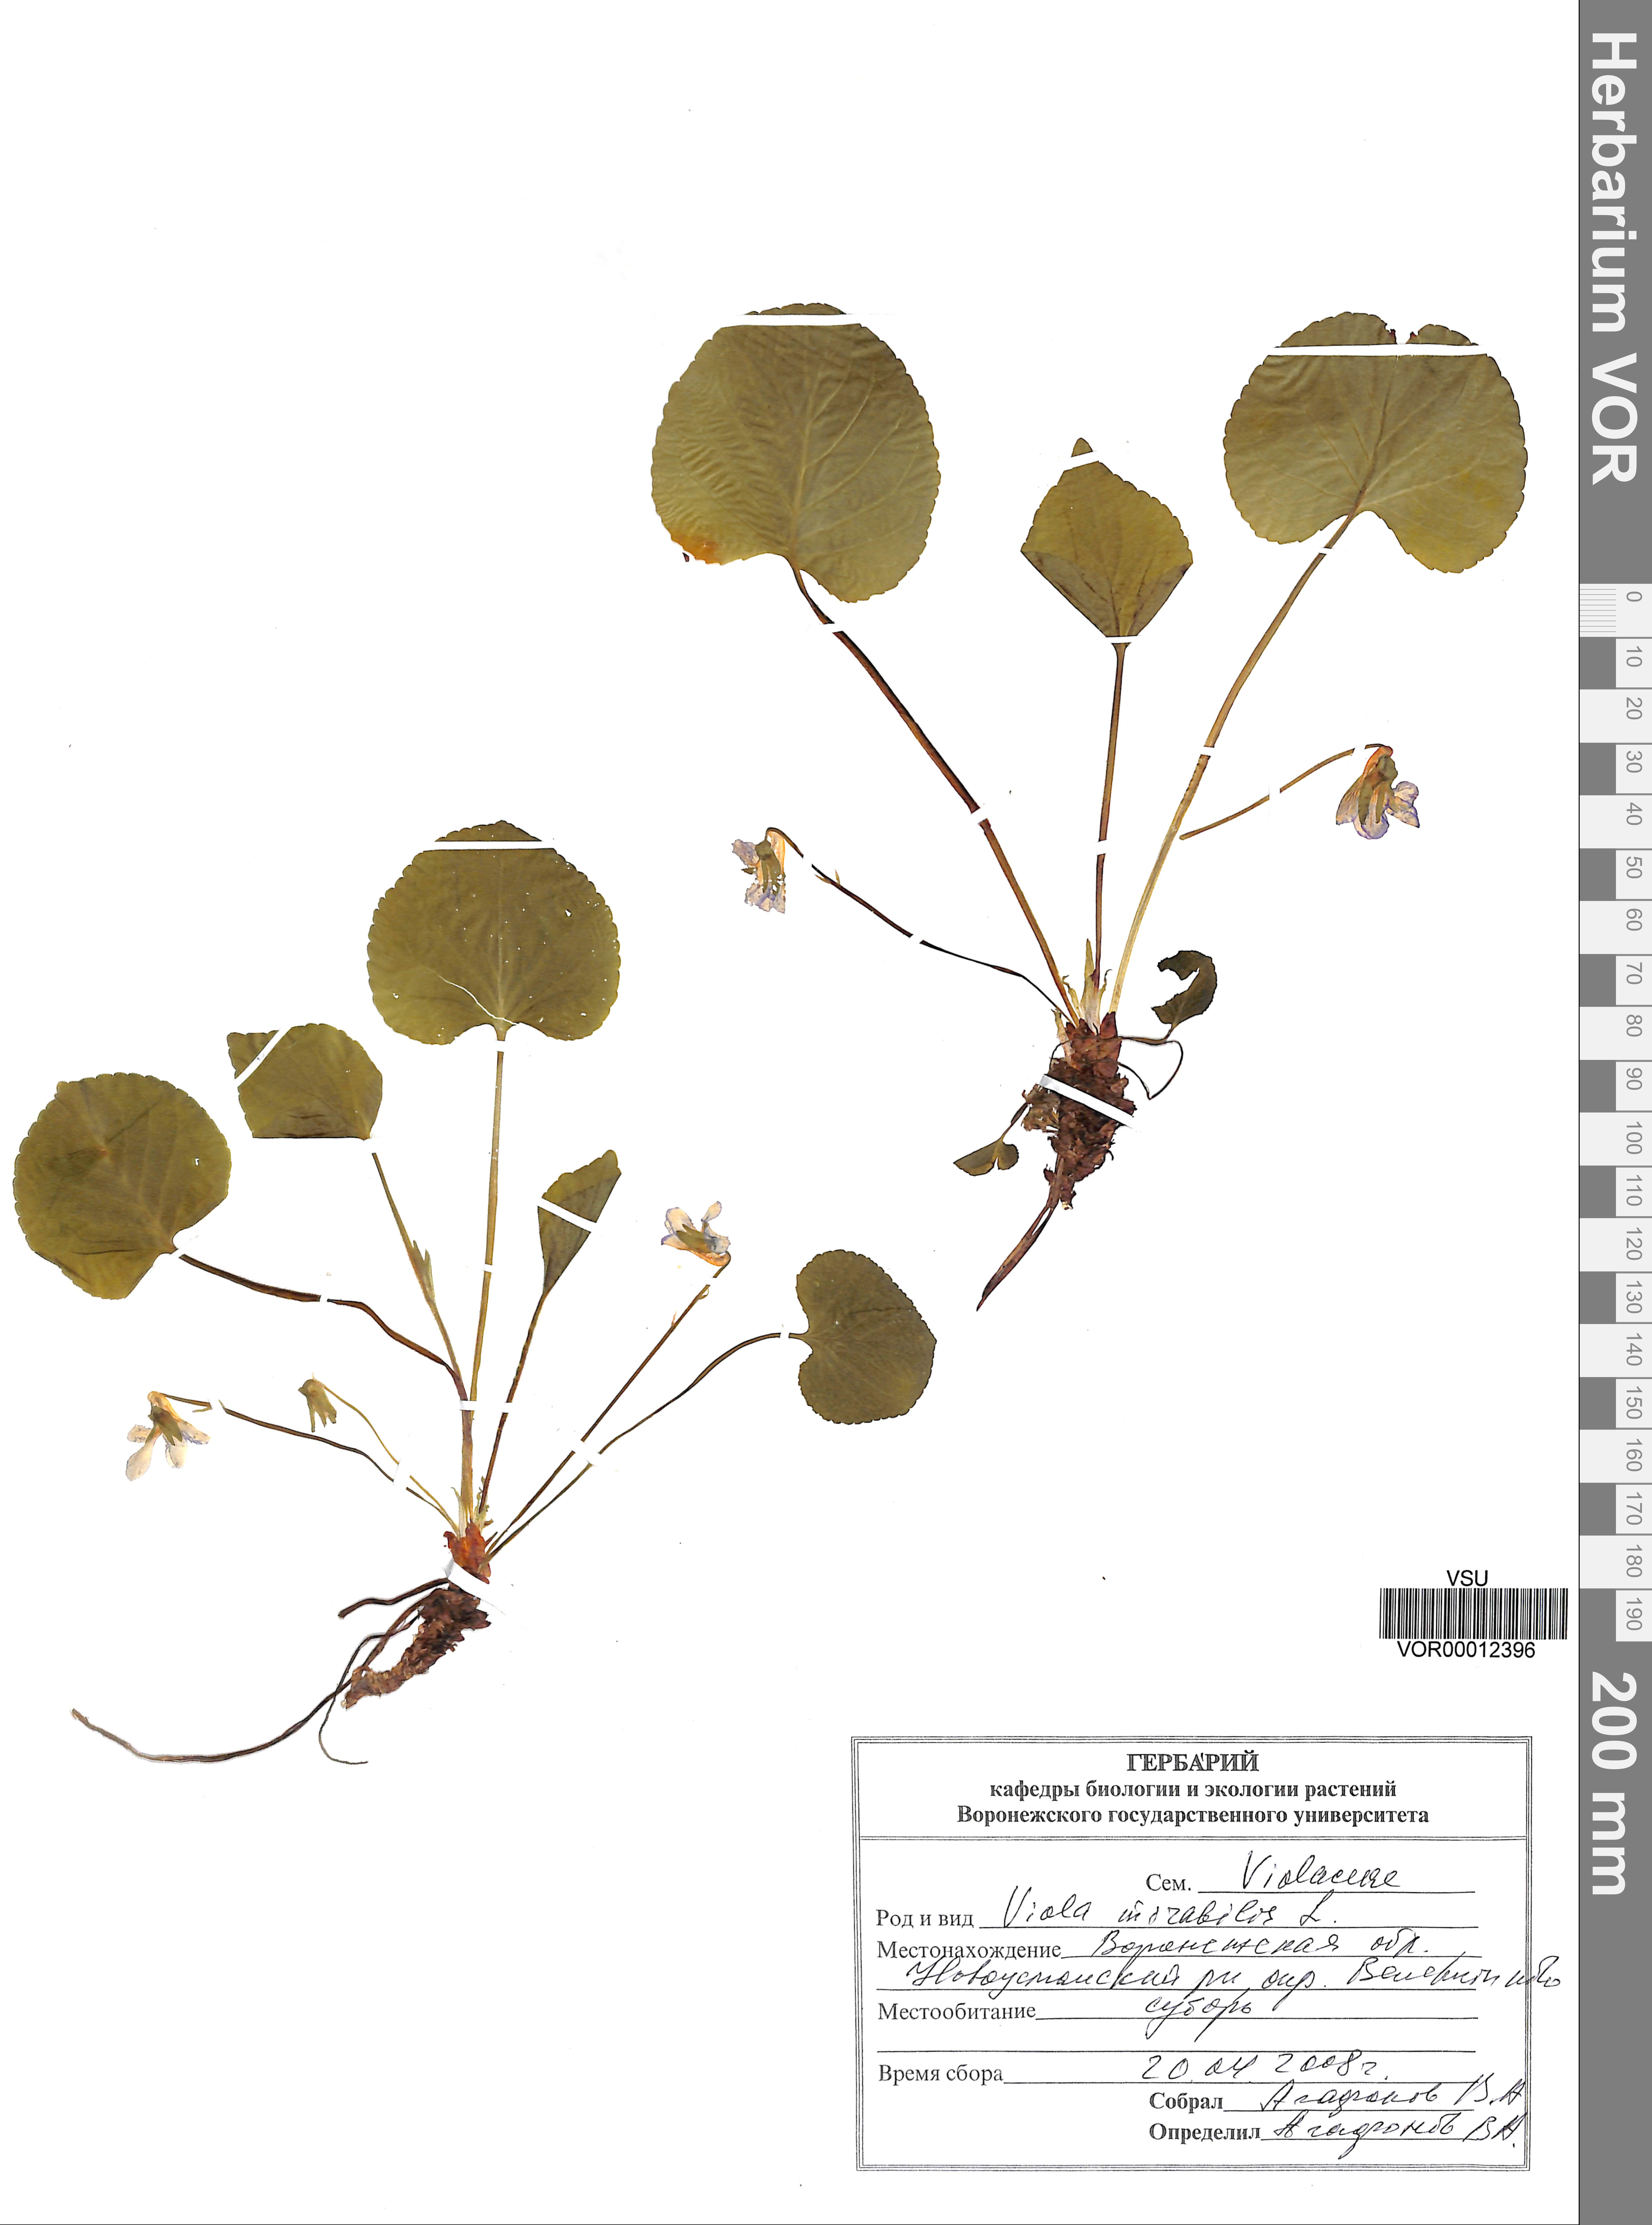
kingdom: Plantae
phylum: Tracheophyta
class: Magnoliopsida
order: Malpighiales
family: Violaceae
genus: Viola
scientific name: Viola mirabilis
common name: Wonder violet
